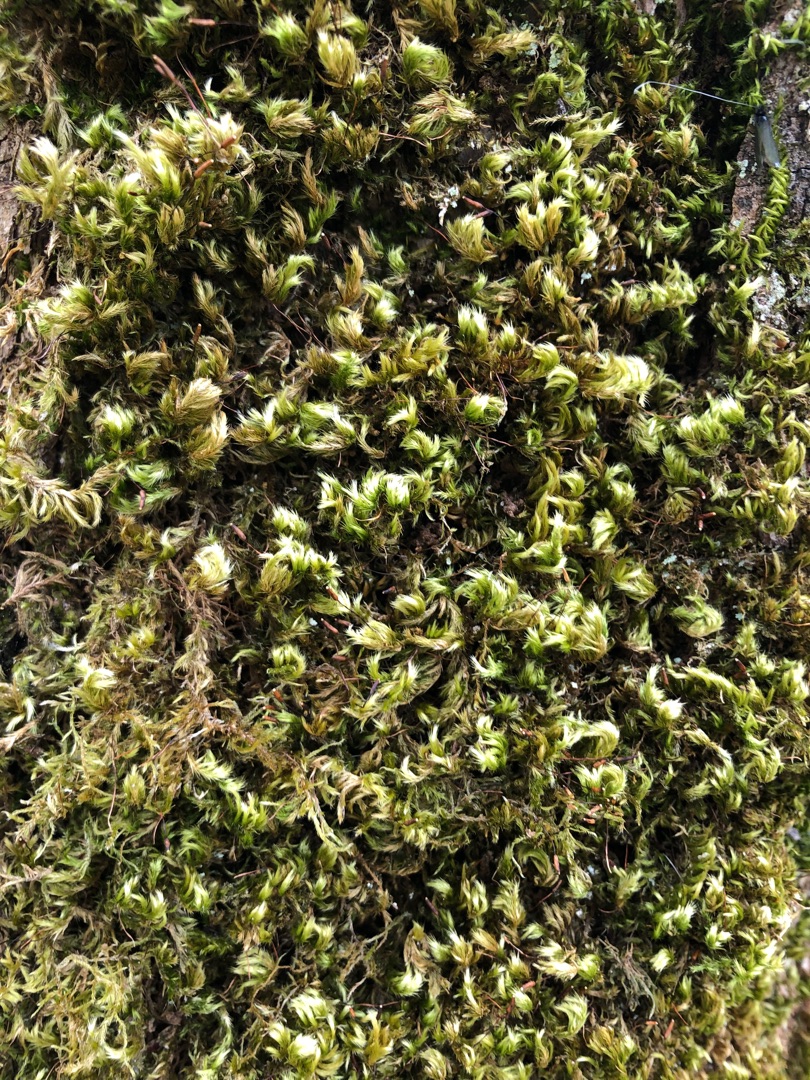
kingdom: Plantae
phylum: Bryophyta
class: Bryopsida
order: Hypnales
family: Brachytheciaceae
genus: Homalothecium
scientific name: Homalothecium sericeum
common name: Krybende silkemos
